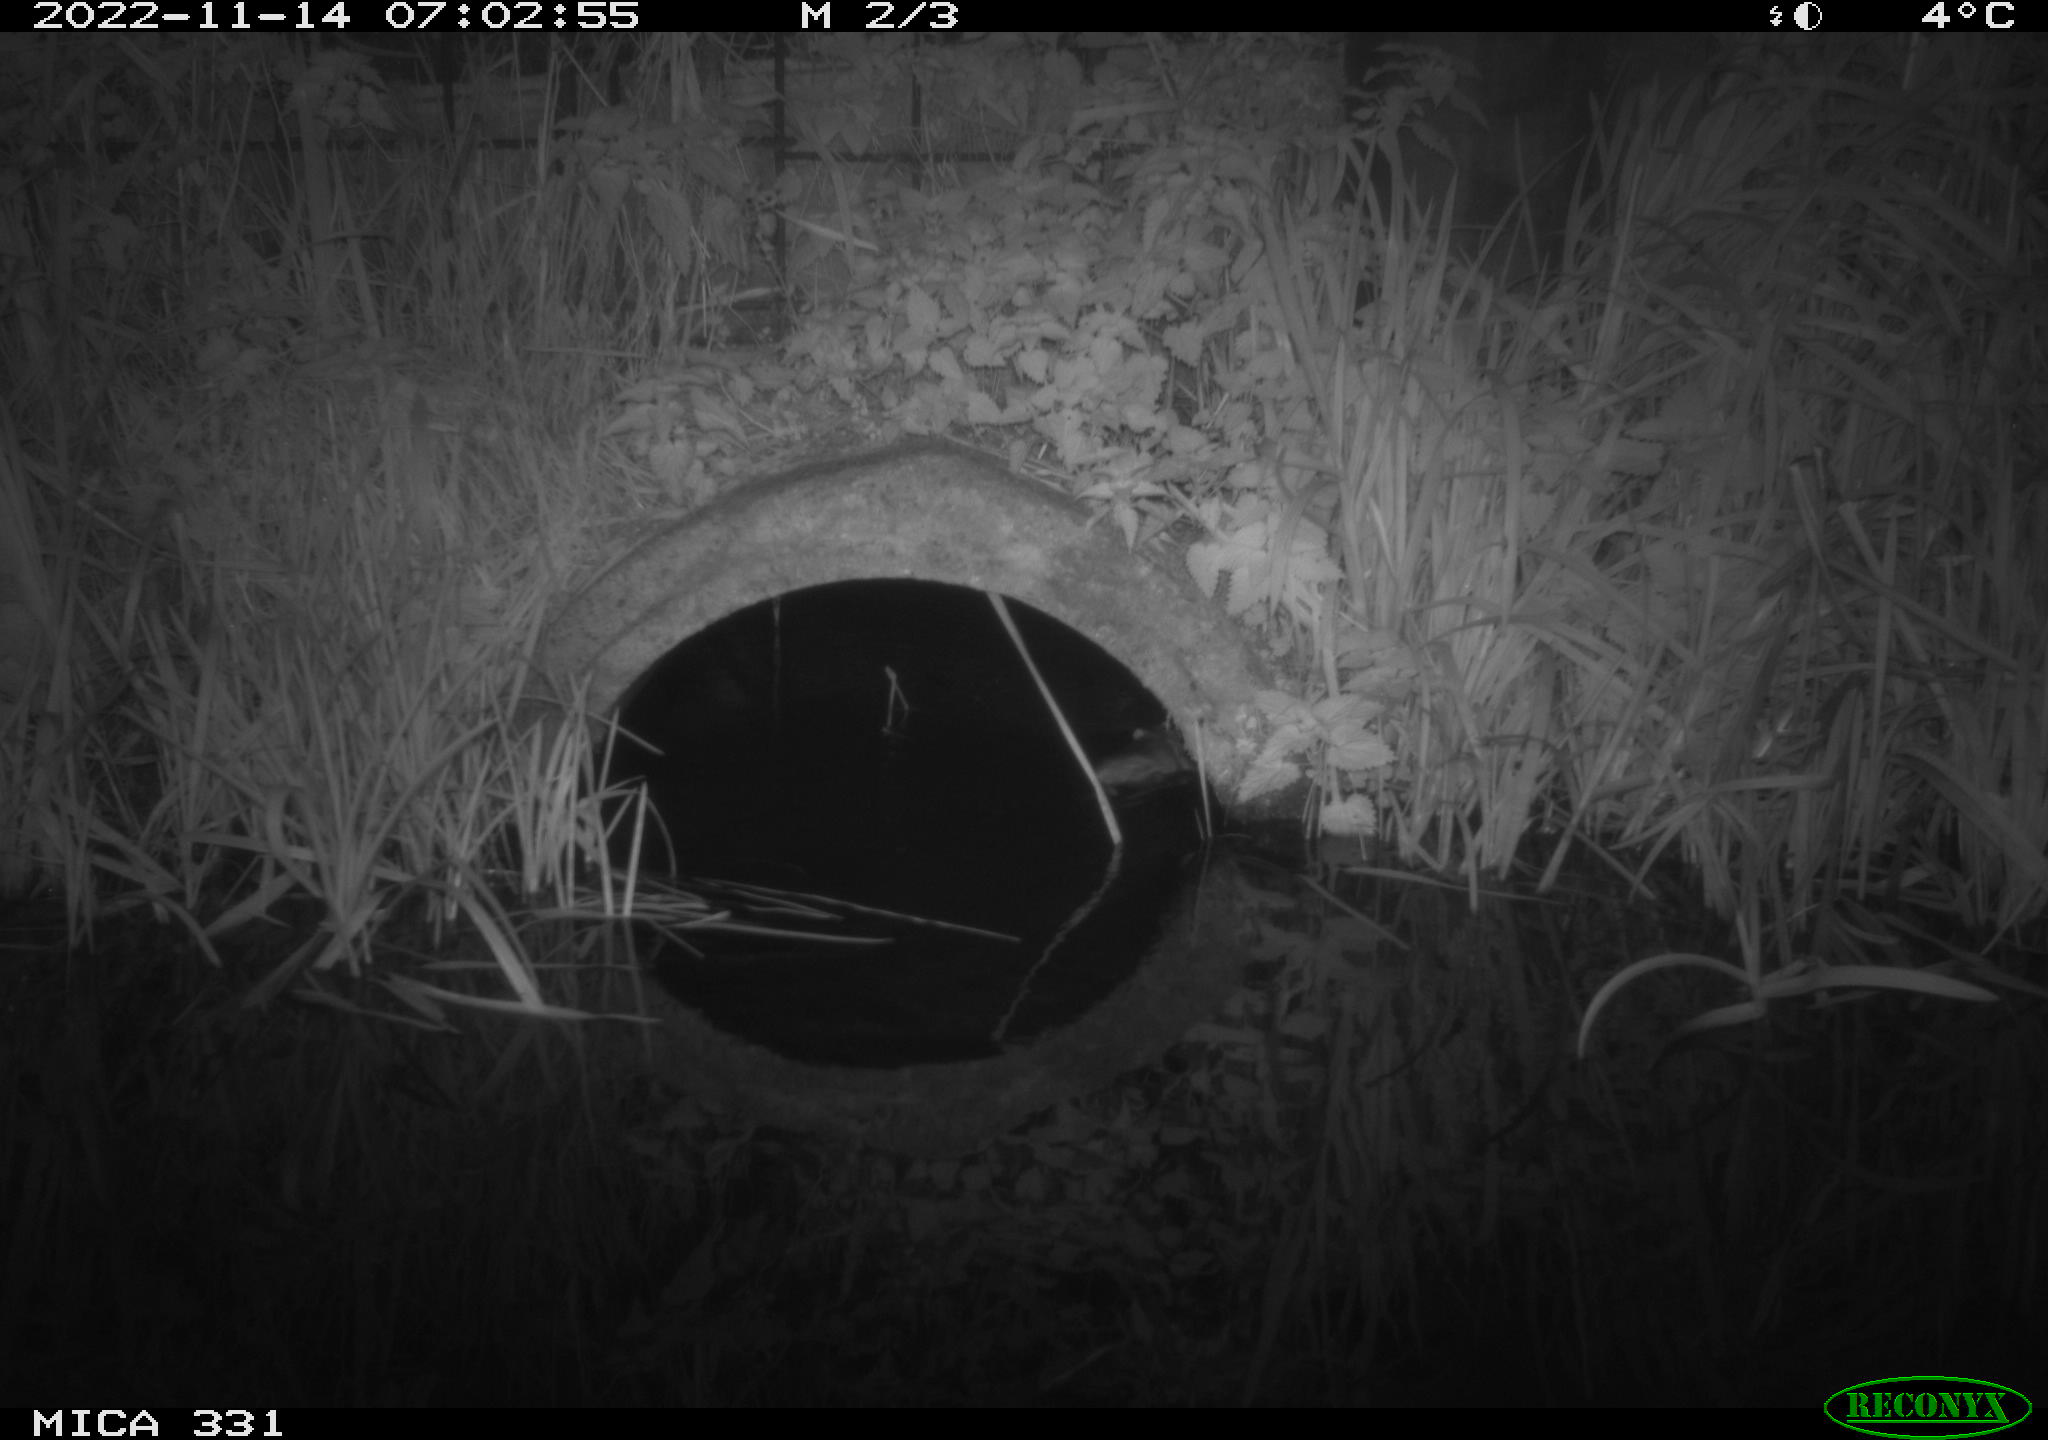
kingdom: Animalia
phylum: Chordata
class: Mammalia
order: Rodentia
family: Muridae
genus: Rattus
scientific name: Rattus norvegicus
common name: Brown rat
